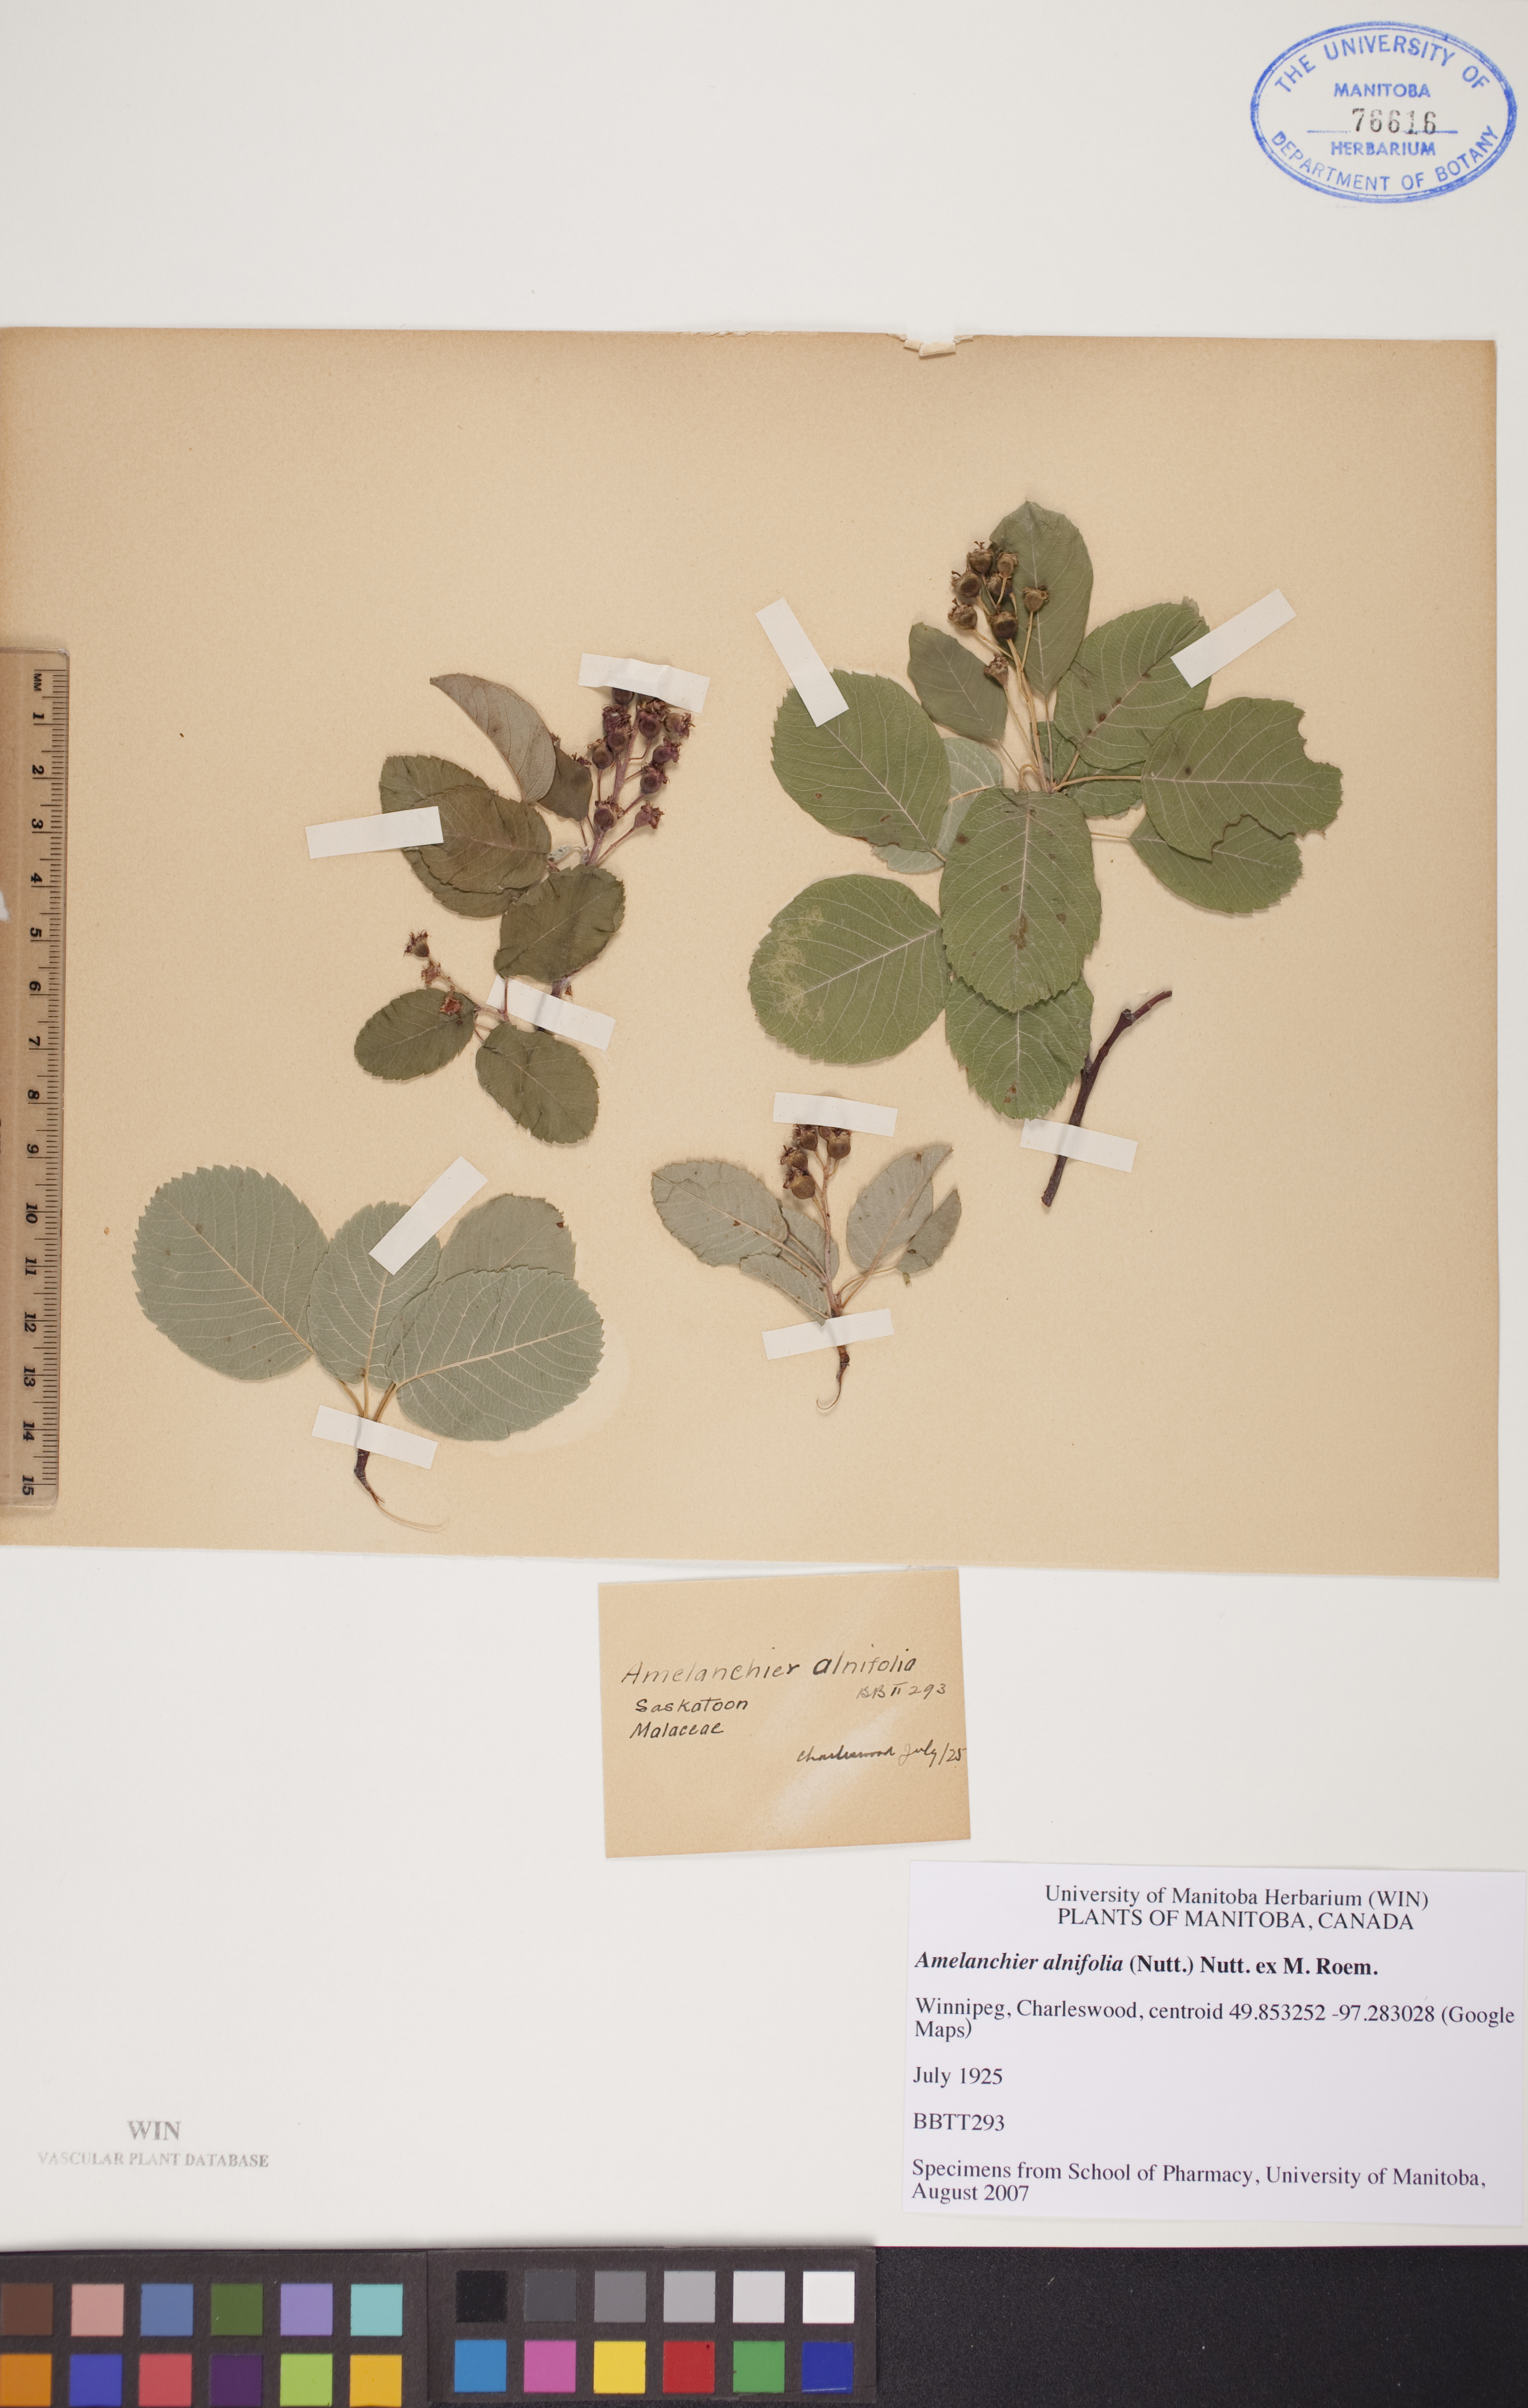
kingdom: Plantae
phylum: Tracheophyta
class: Magnoliopsida
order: Rosales
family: Rosaceae
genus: Amelanchier
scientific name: Amelanchier alnifolia
